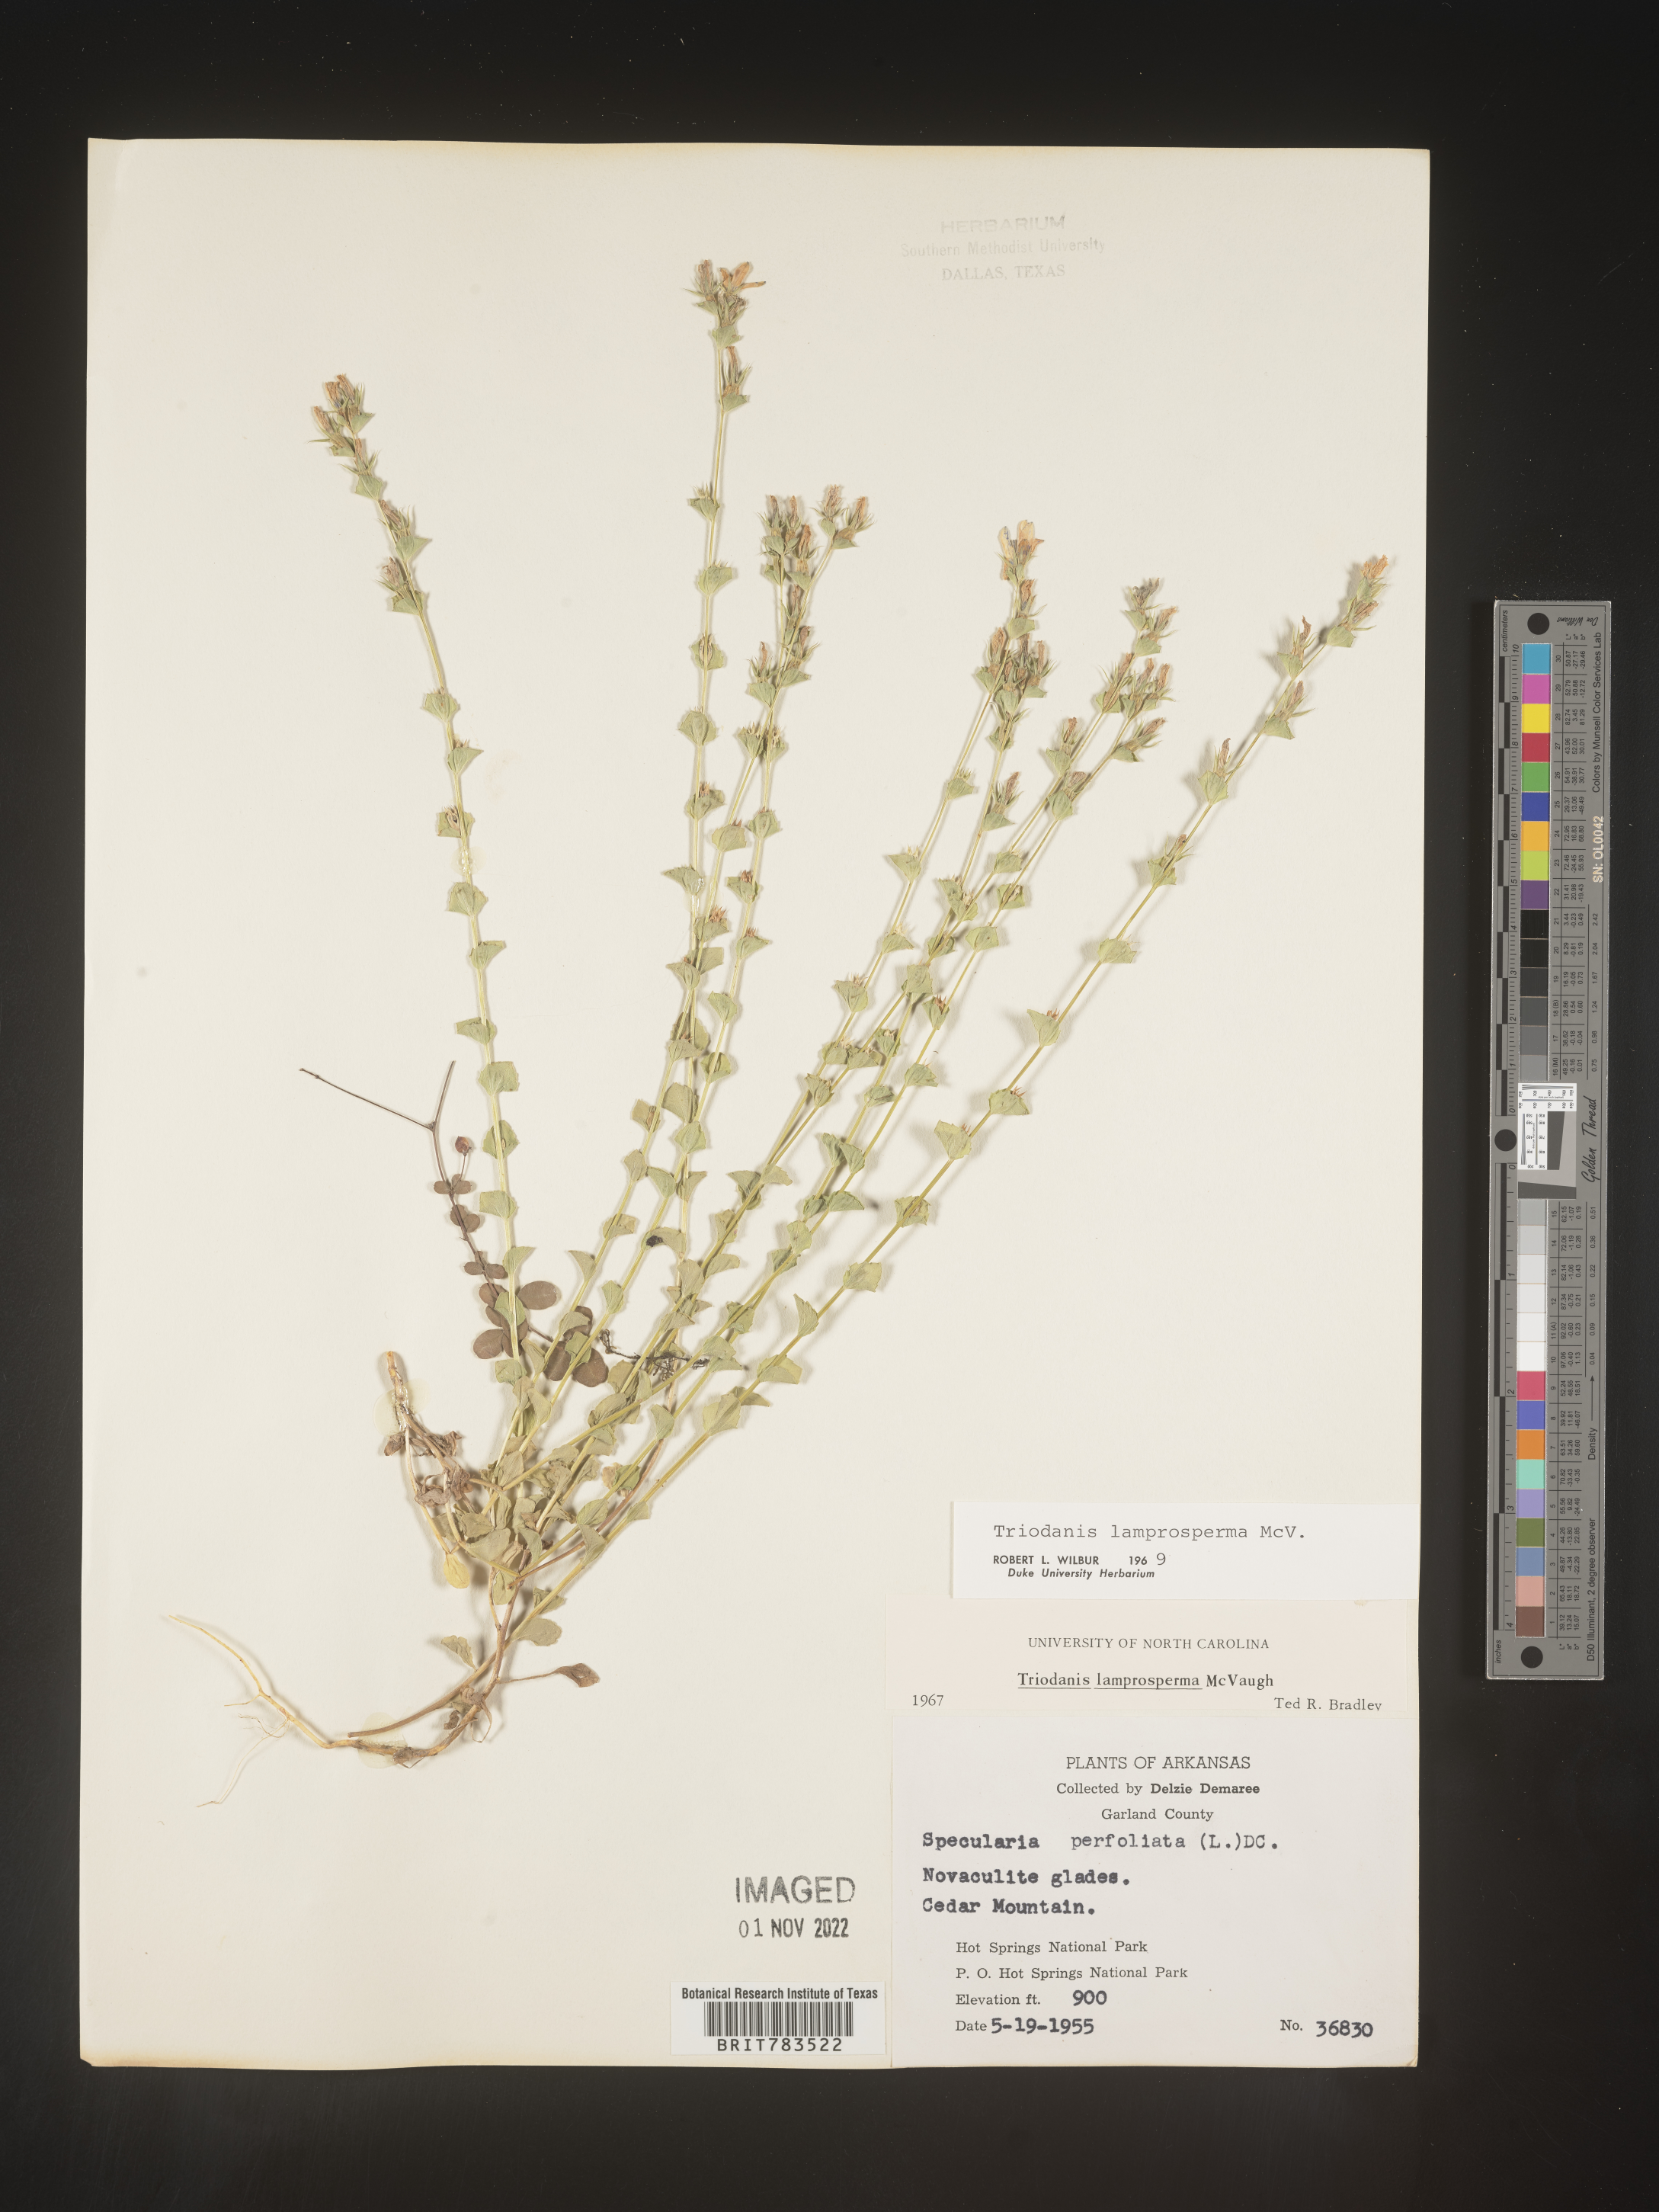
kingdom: Plantae
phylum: Tracheophyta
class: Magnoliopsida
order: Asterales
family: Campanulaceae
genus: Triodanis
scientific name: Triodanis lamprosperma
